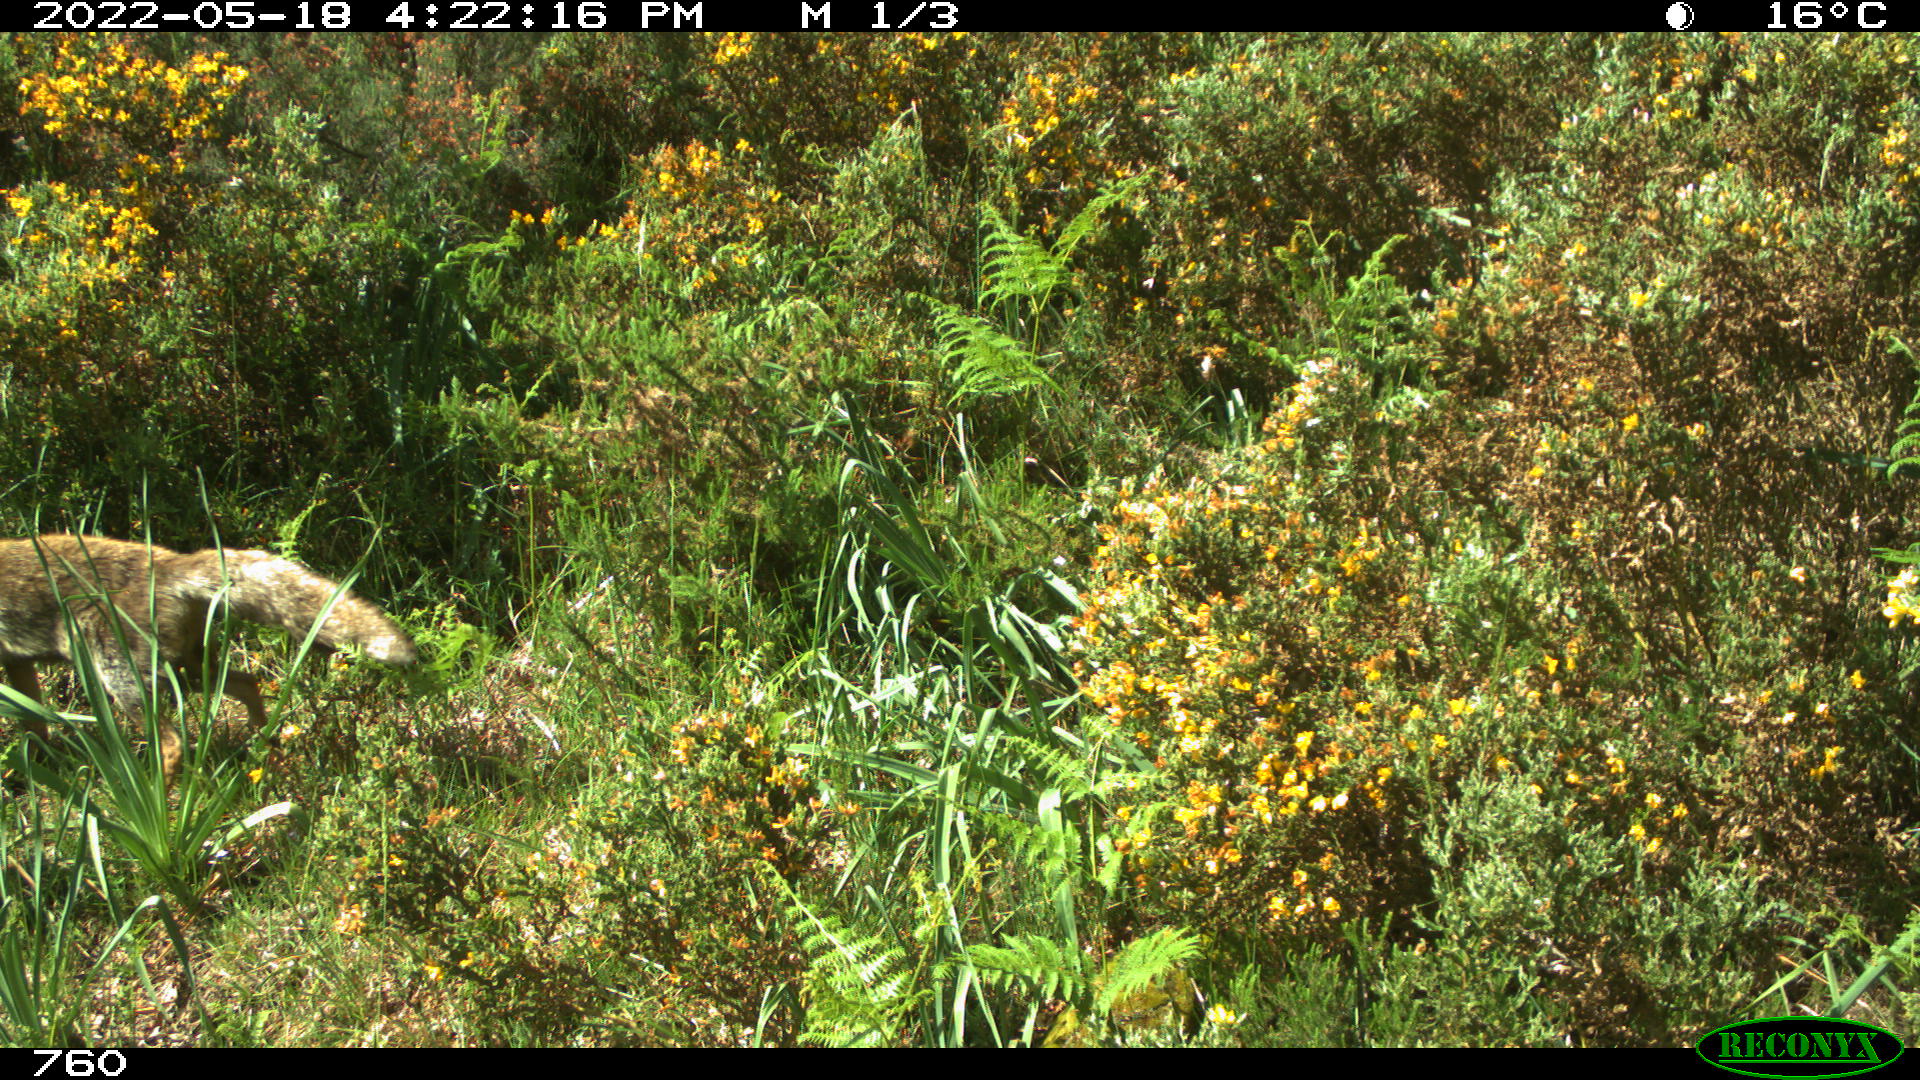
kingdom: Animalia
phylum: Chordata
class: Mammalia
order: Carnivora
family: Canidae
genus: Vulpes
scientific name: Vulpes vulpes
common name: Red fox
